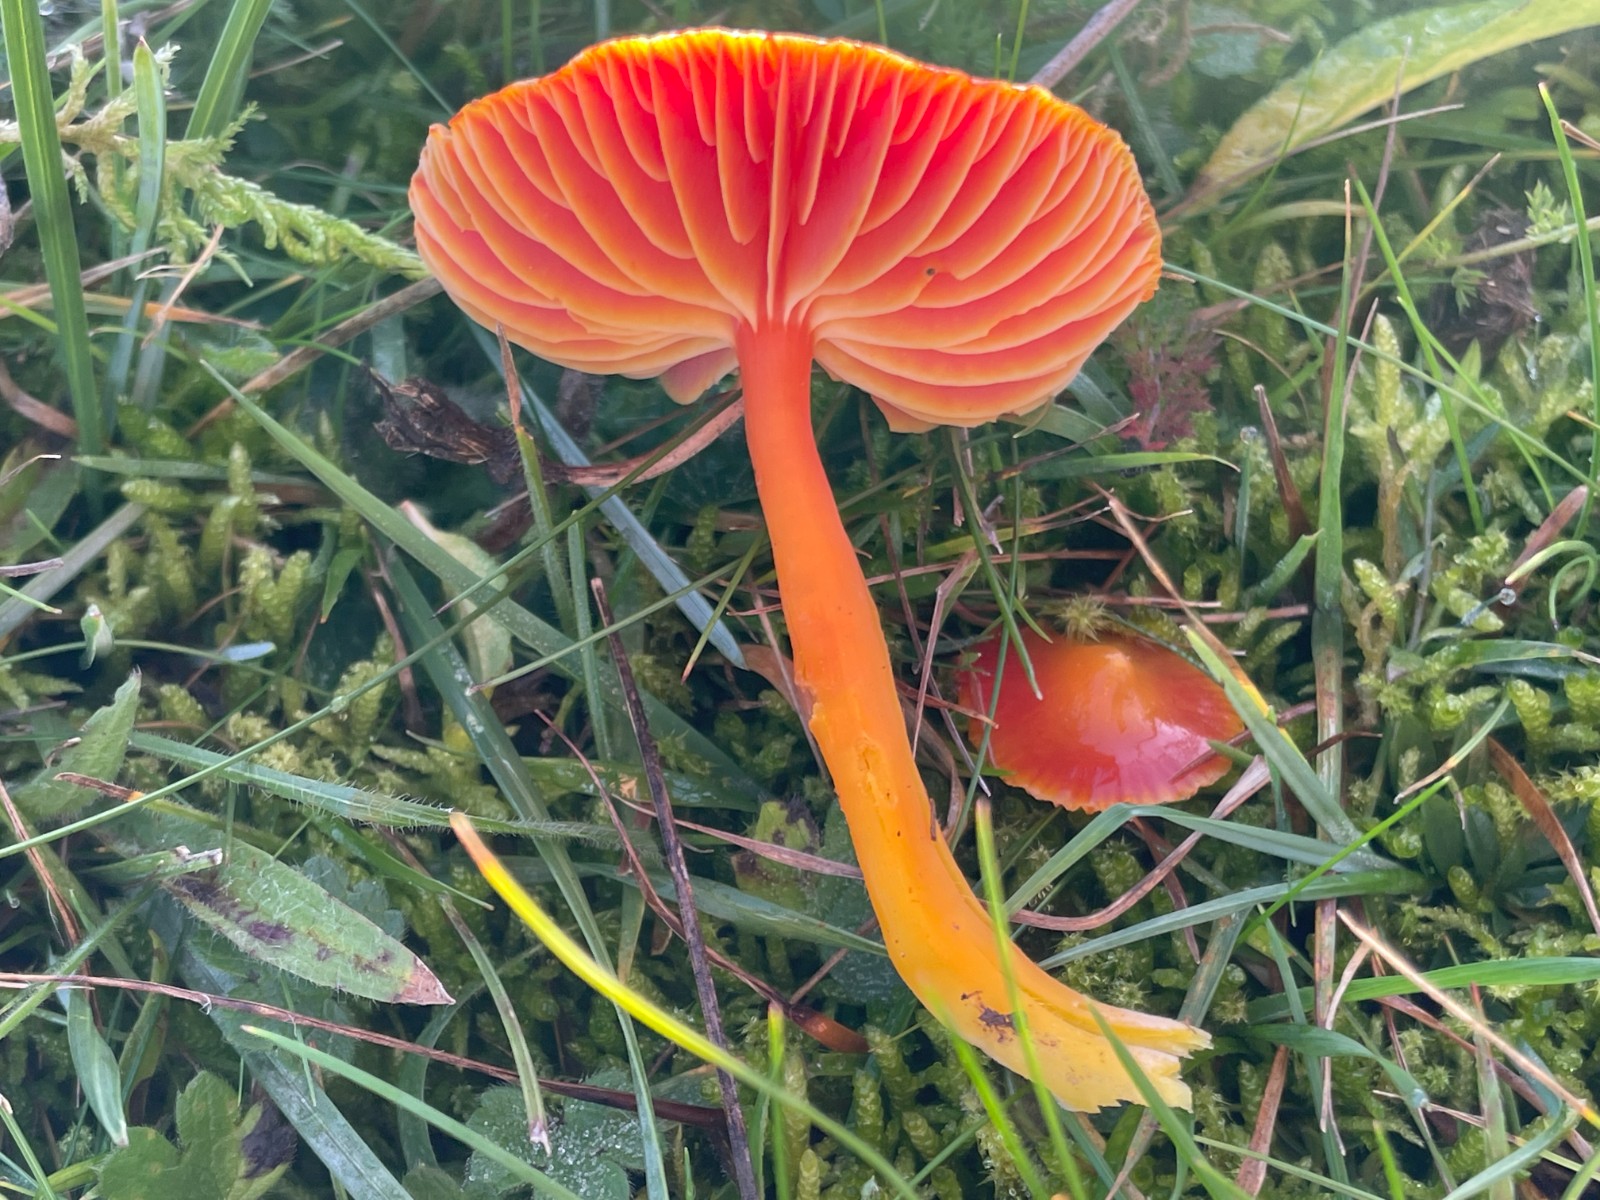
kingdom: Fungi
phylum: Basidiomycota
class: Agaricomycetes
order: Agaricales
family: Hygrophoraceae
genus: Hygrocybe
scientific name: Hygrocybe coccinea
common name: cinnober-vokshat
